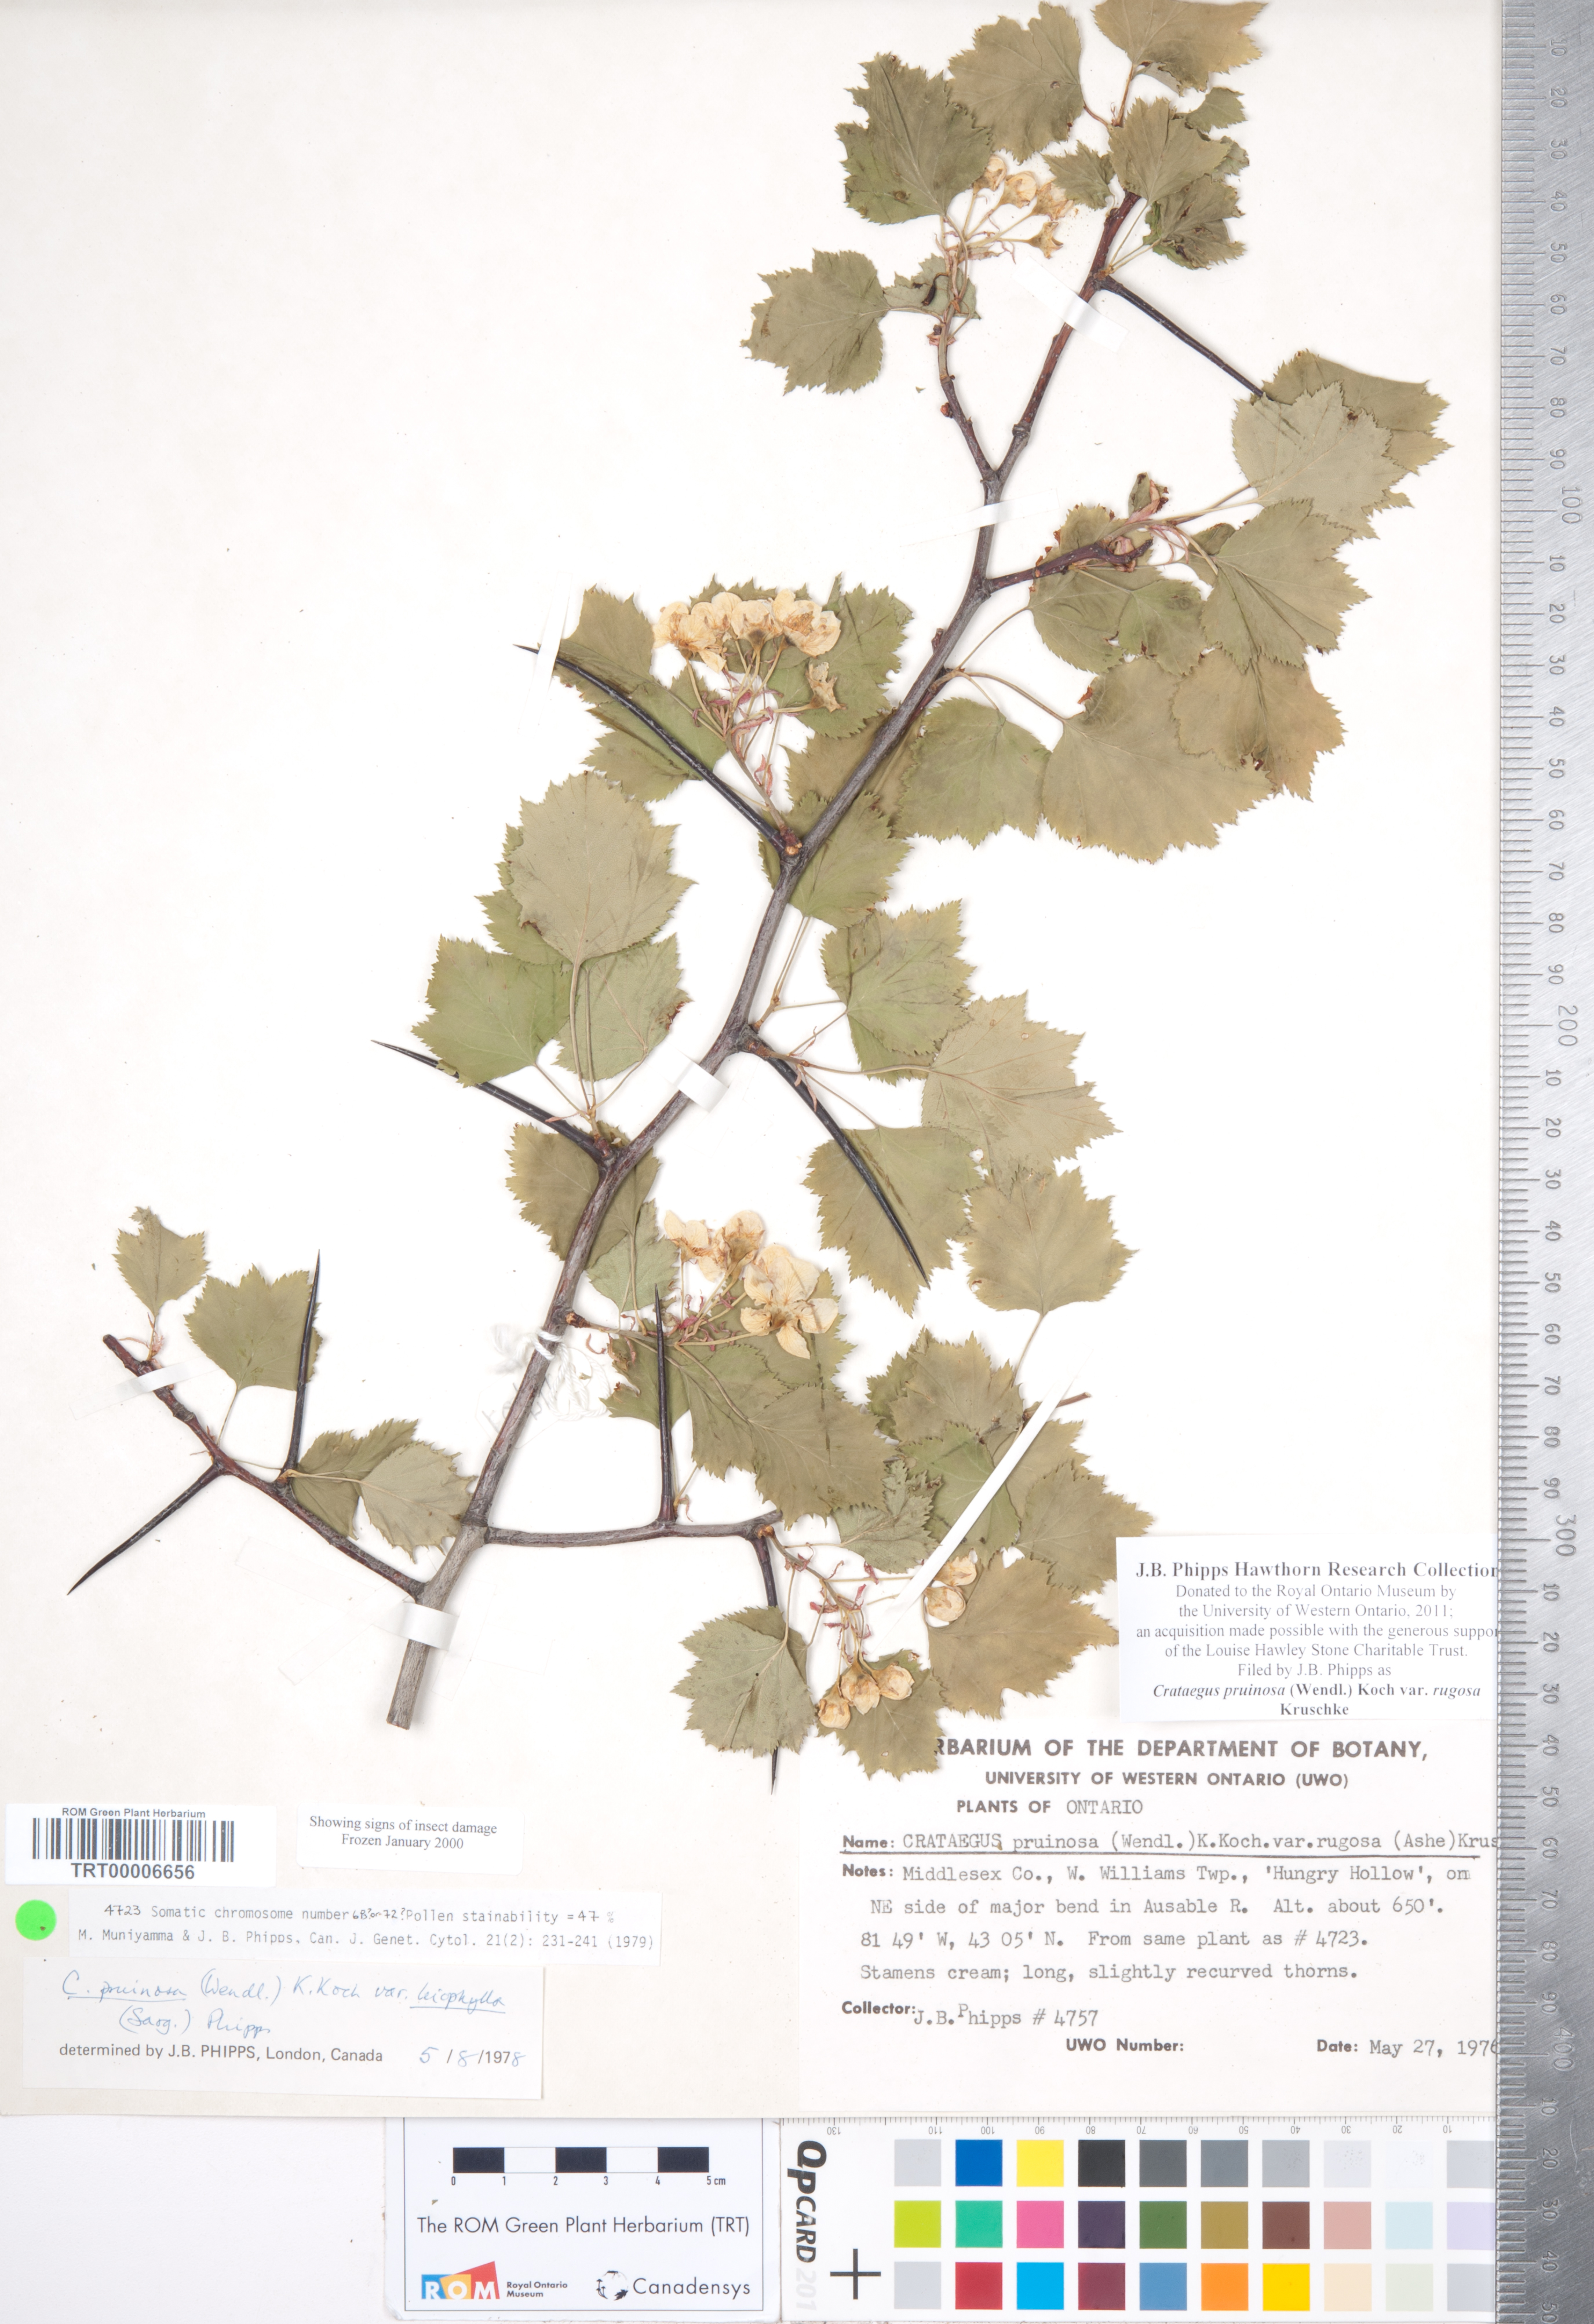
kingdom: Plantae
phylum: Tracheophyta
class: Magnoliopsida
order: Rosales
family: Rosaceae
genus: Crataegus
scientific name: Crataegus pruinosa
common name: Waxy-fruit hawthorn
